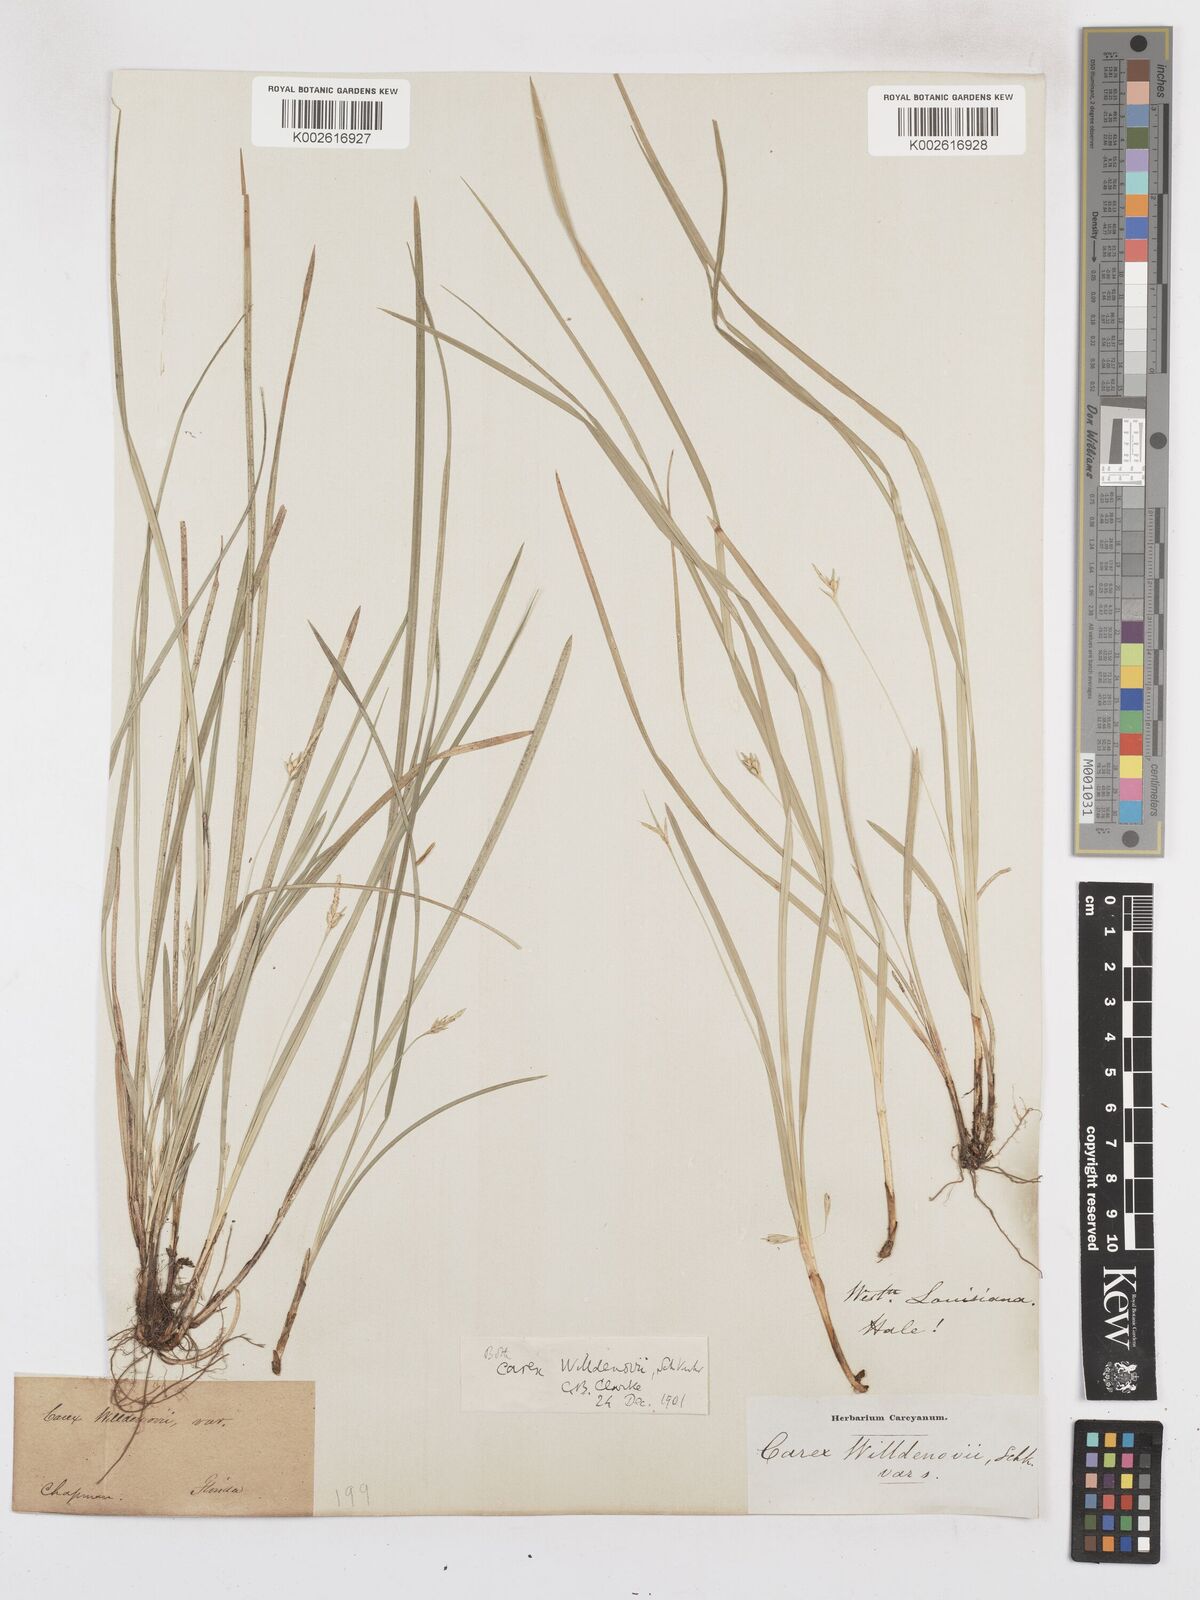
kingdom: Plantae
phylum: Tracheophyta
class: Liliopsida
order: Poales
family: Cyperaceae
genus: Carex
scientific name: Carex willdenowii
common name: Willdenow's sedge
